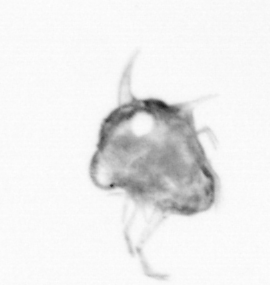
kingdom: Animalia
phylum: Arthropoda
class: Copepoda
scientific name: Copepoda
